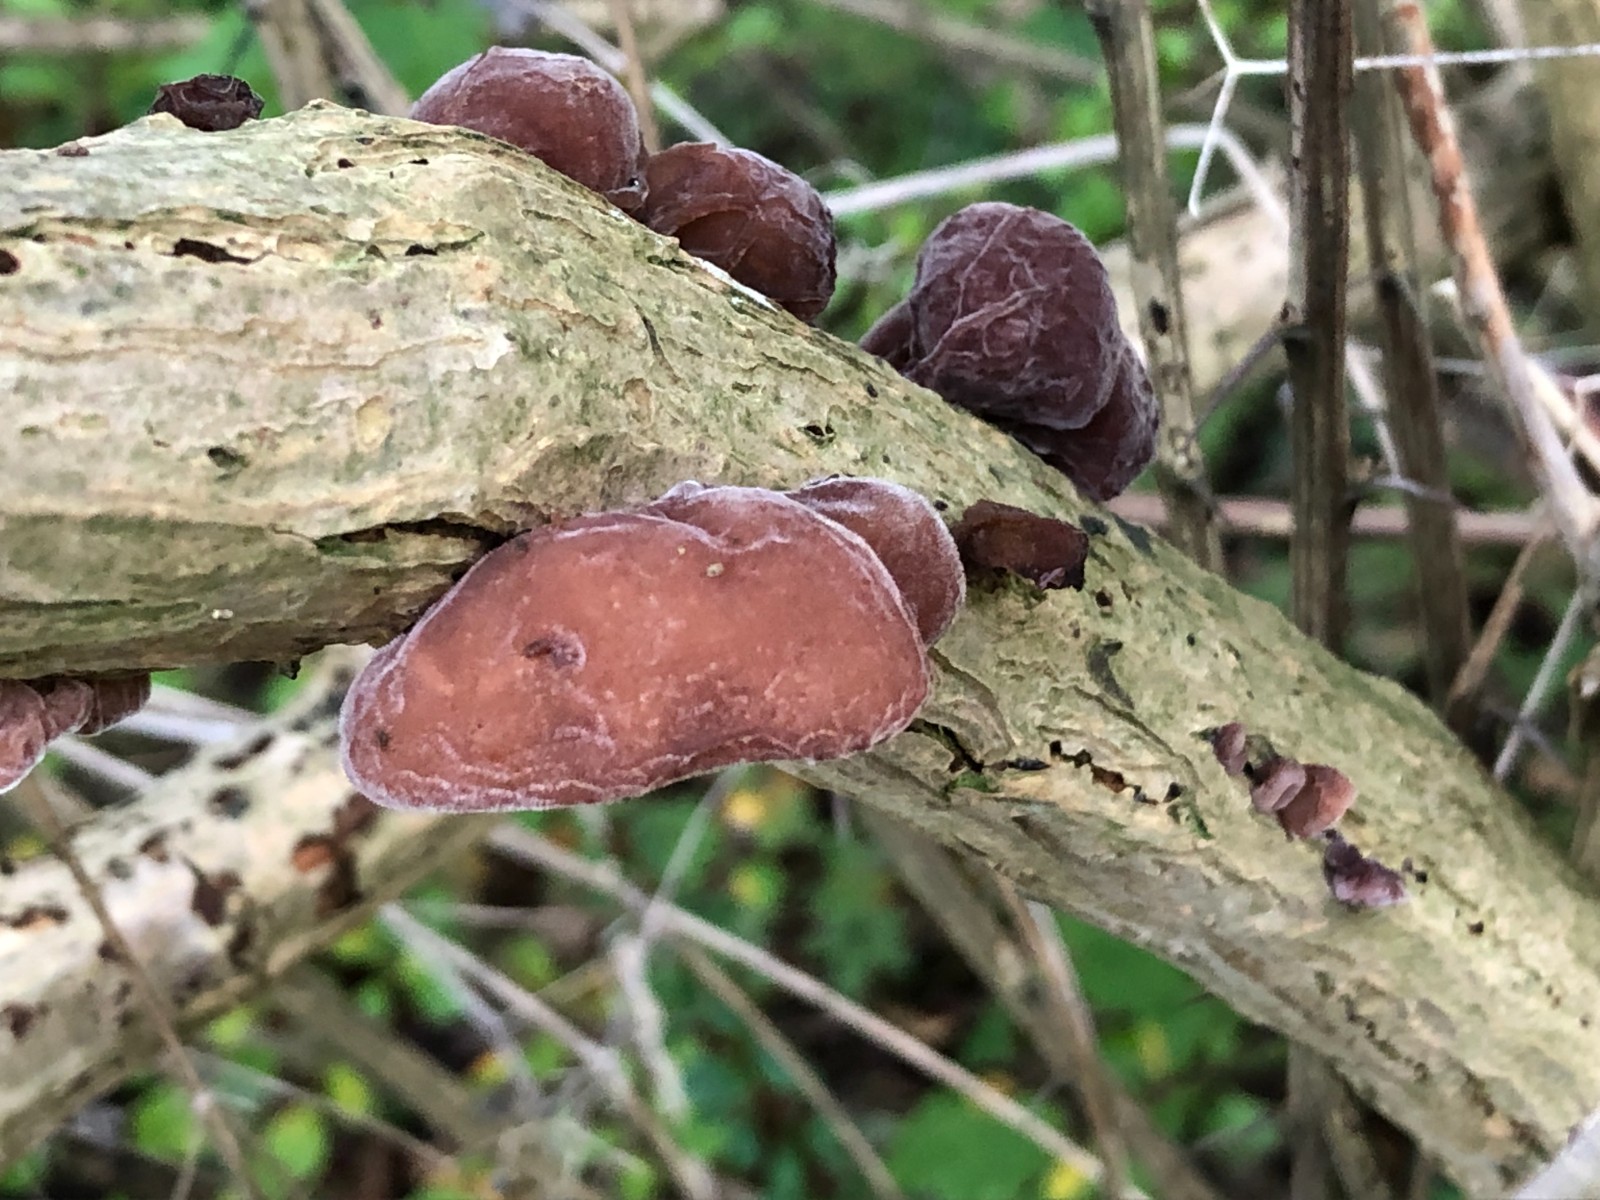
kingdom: Fungi
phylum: Basidiomycota
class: Agaricomycetes
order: Auriculariales
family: Auriculariaceae
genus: Auricularia
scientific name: Auricularia auricula-judae
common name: almindelig judasøre
